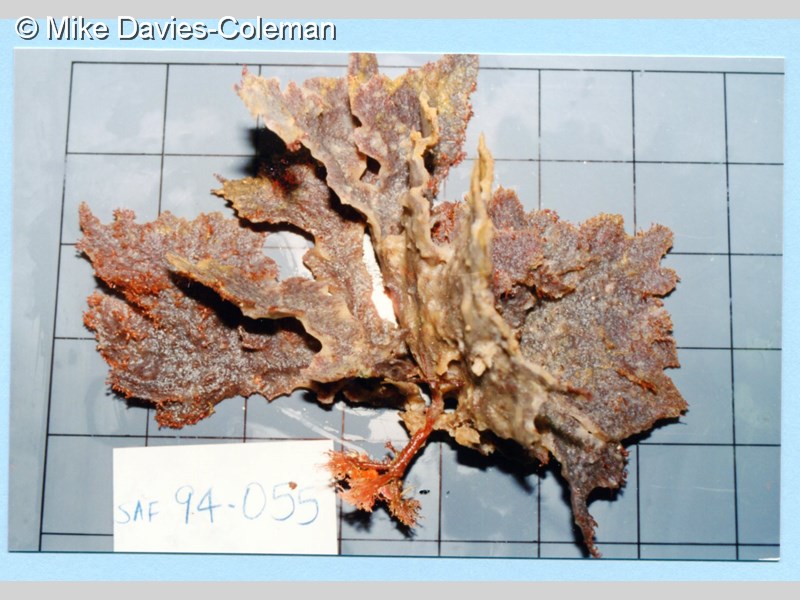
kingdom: Animalia
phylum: Porifera
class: Demospongiae
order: Dictyoceratida
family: Thorectidae
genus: Phyllospongia
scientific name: Phyllospongia foliascens
